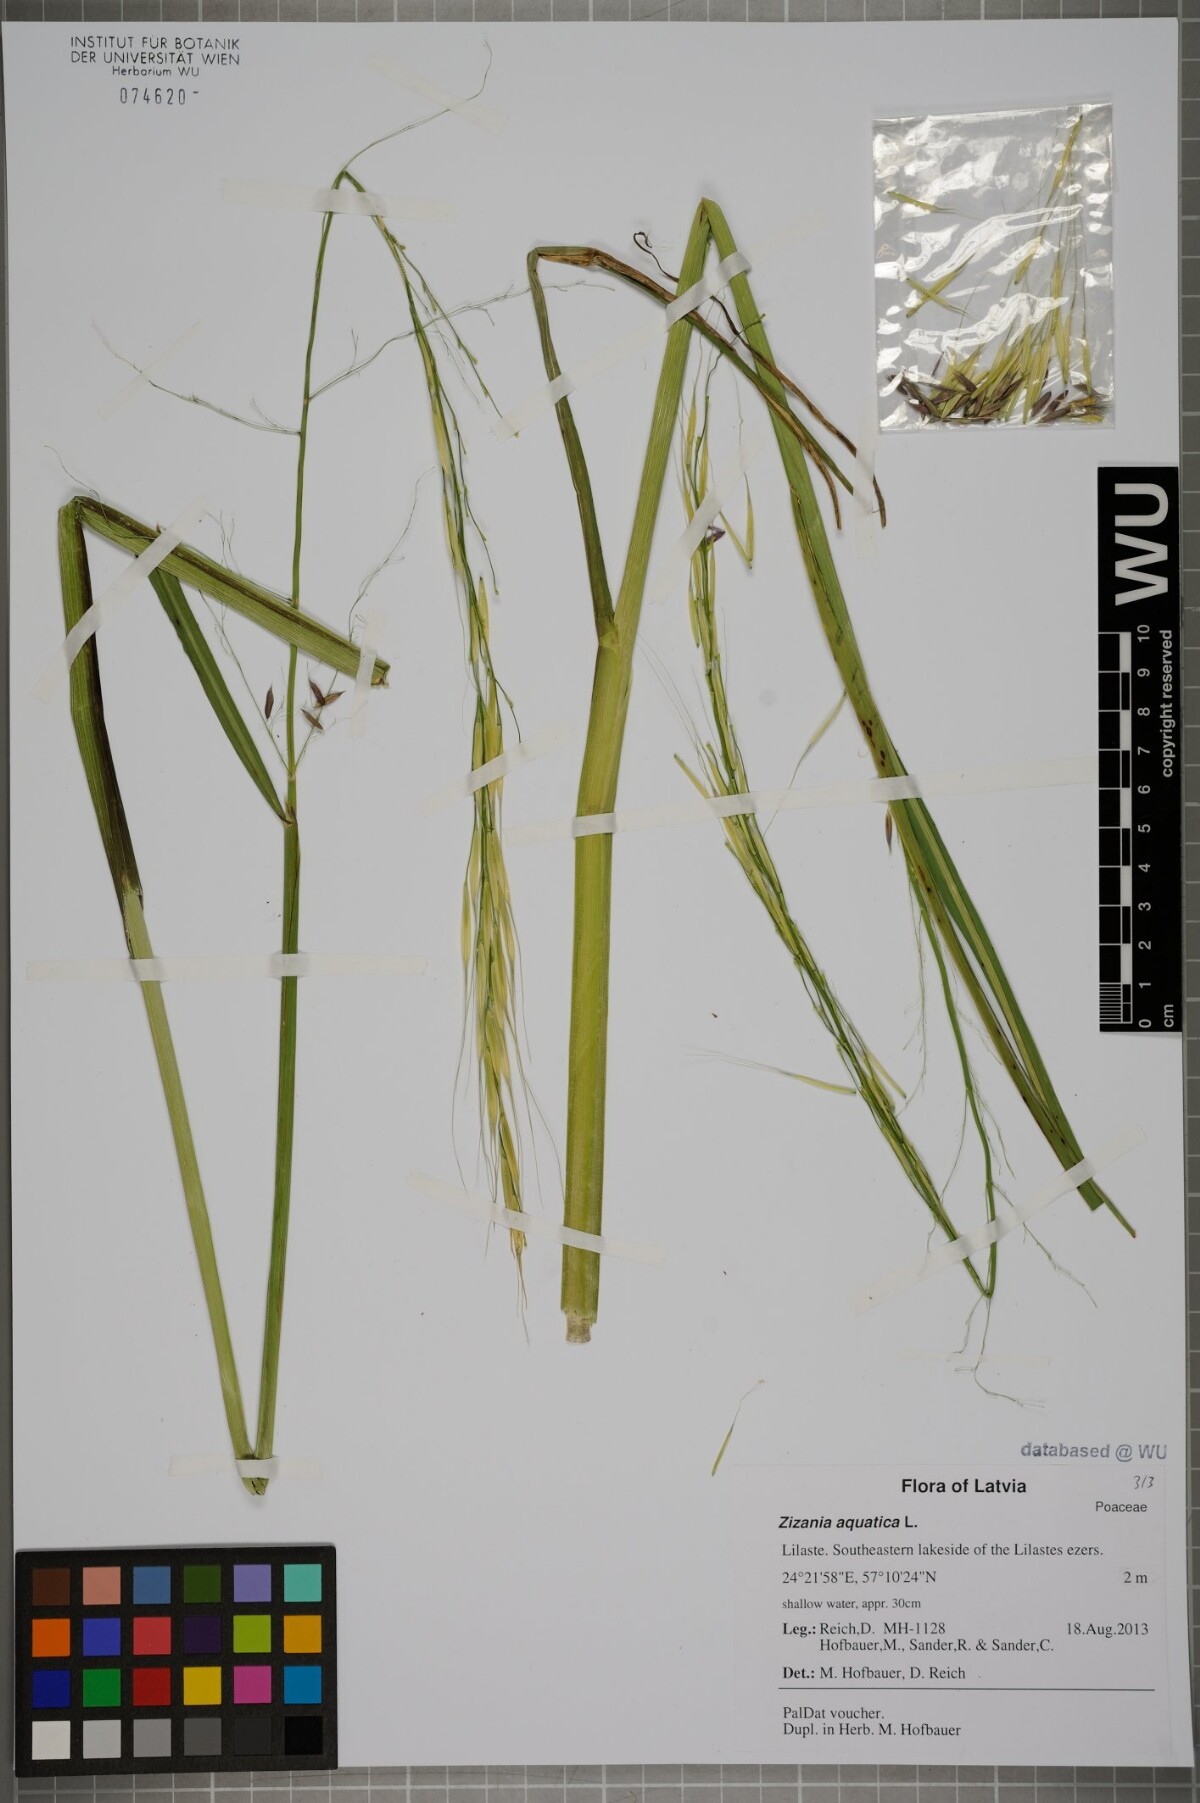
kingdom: Plantae
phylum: Tracheophyta
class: Liliopsida
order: Poales
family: Poaceae
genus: Zizania
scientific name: Zizania aquatica
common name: Annual wildrice
